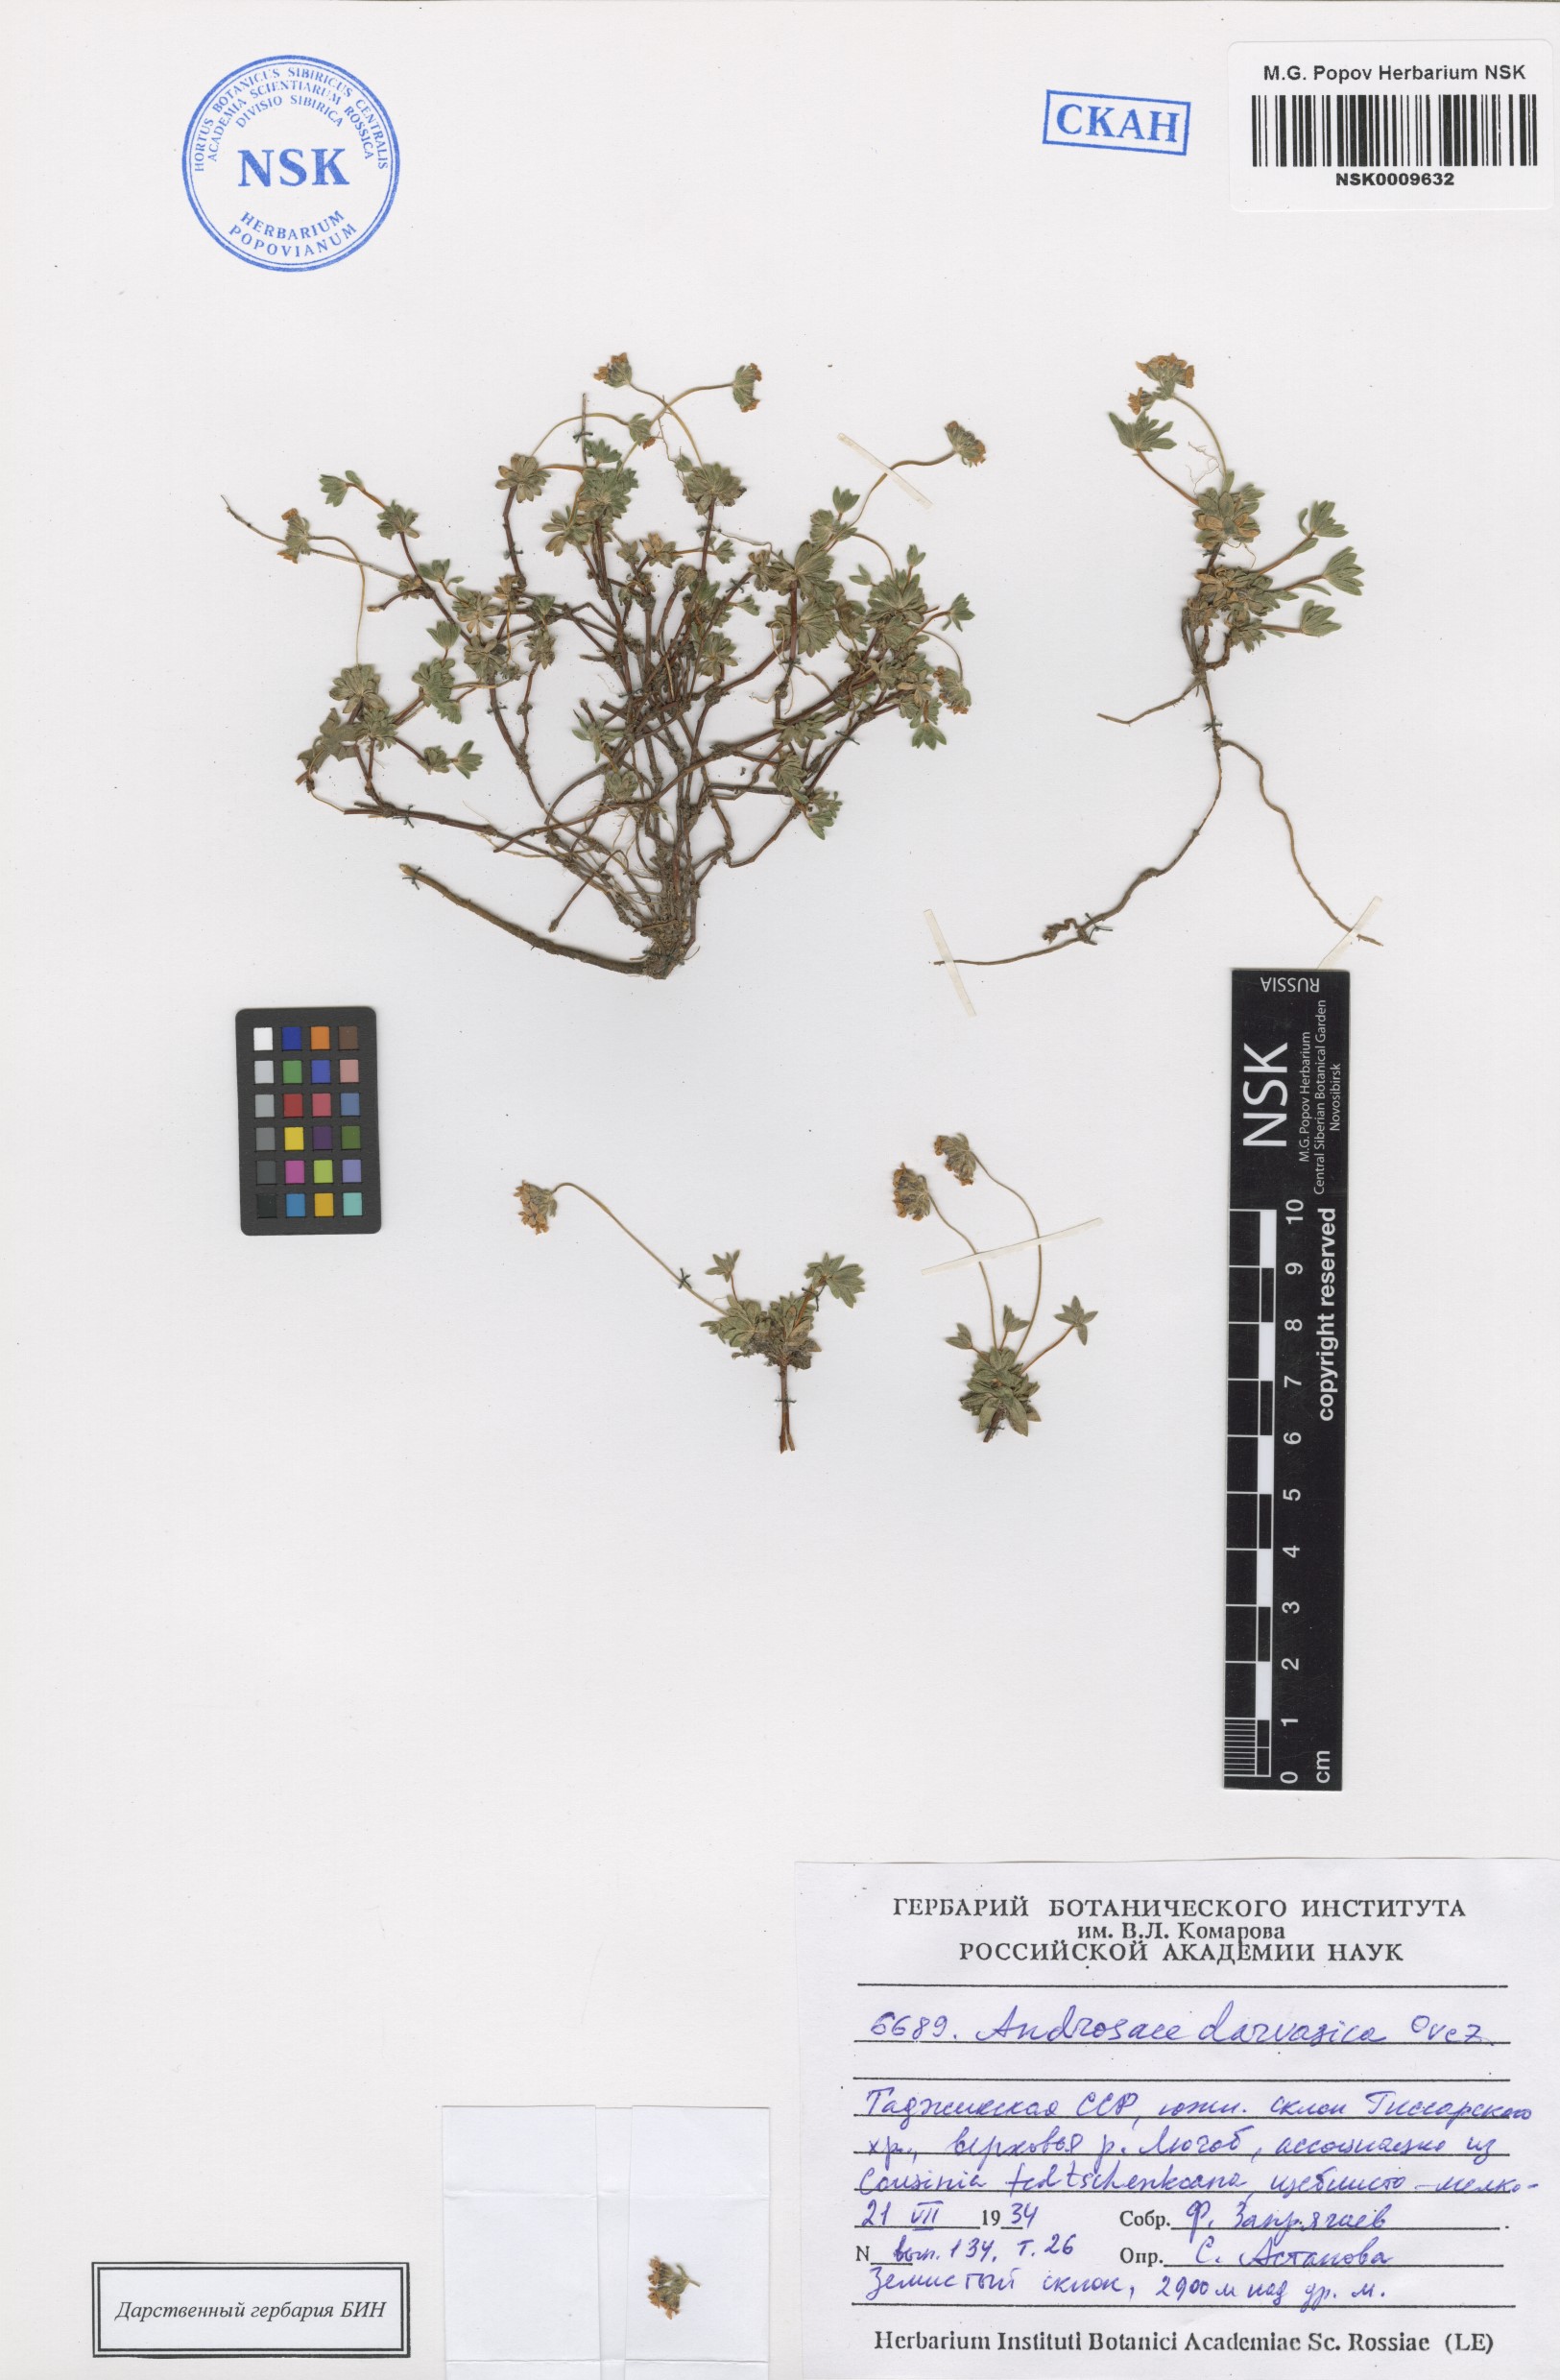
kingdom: Plantae
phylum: Tracheophyta
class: Magnoliopsida
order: Ericales
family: Primulaceae
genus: Androsace
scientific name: Androsace darvasica
